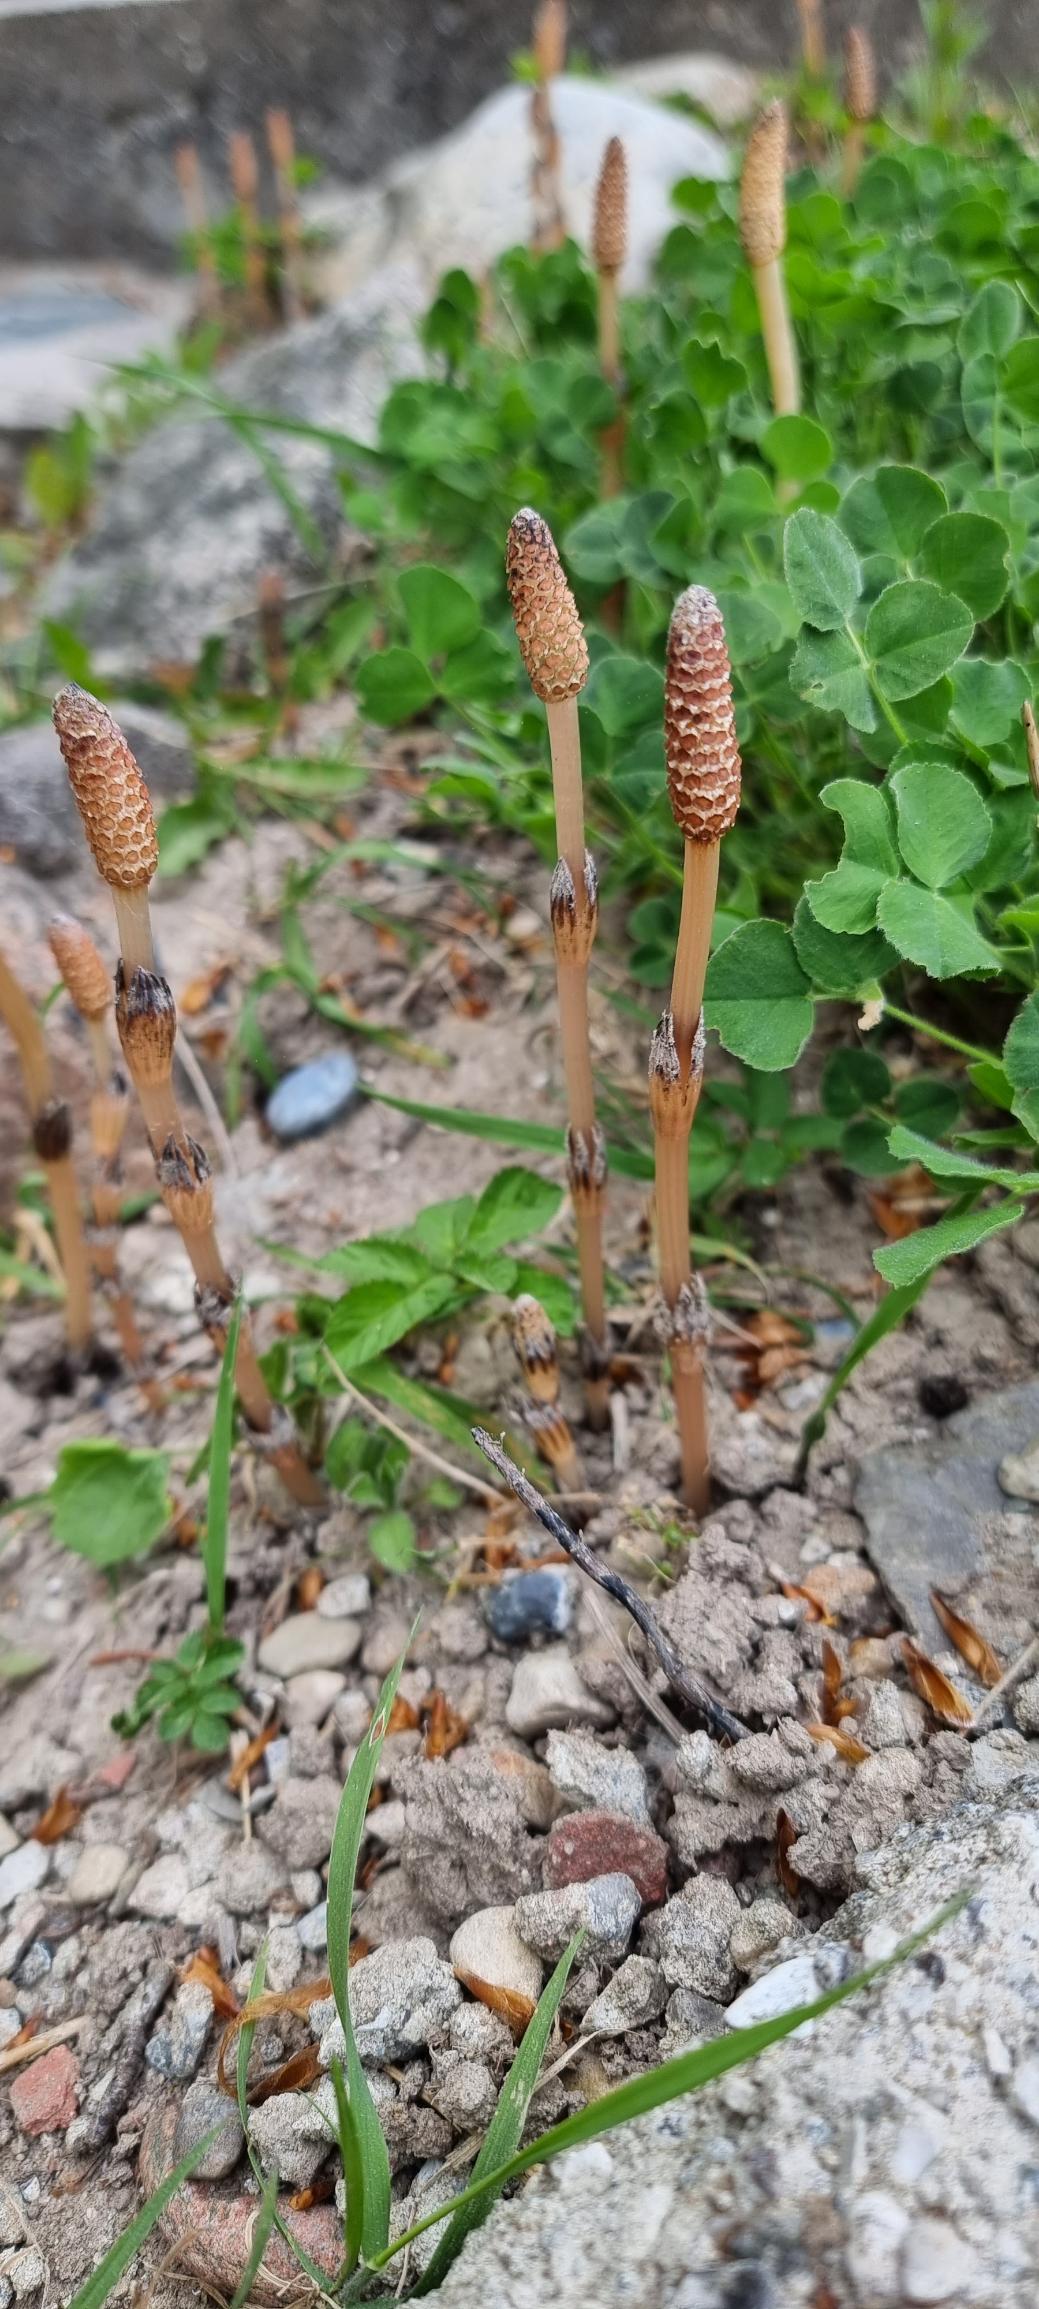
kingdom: Plantae
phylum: Tracheophyta
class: Polypodiopsida
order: Equisetales
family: Equisetaceae
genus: Equisetum
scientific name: Equisetum arvense
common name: Ager-padderok
